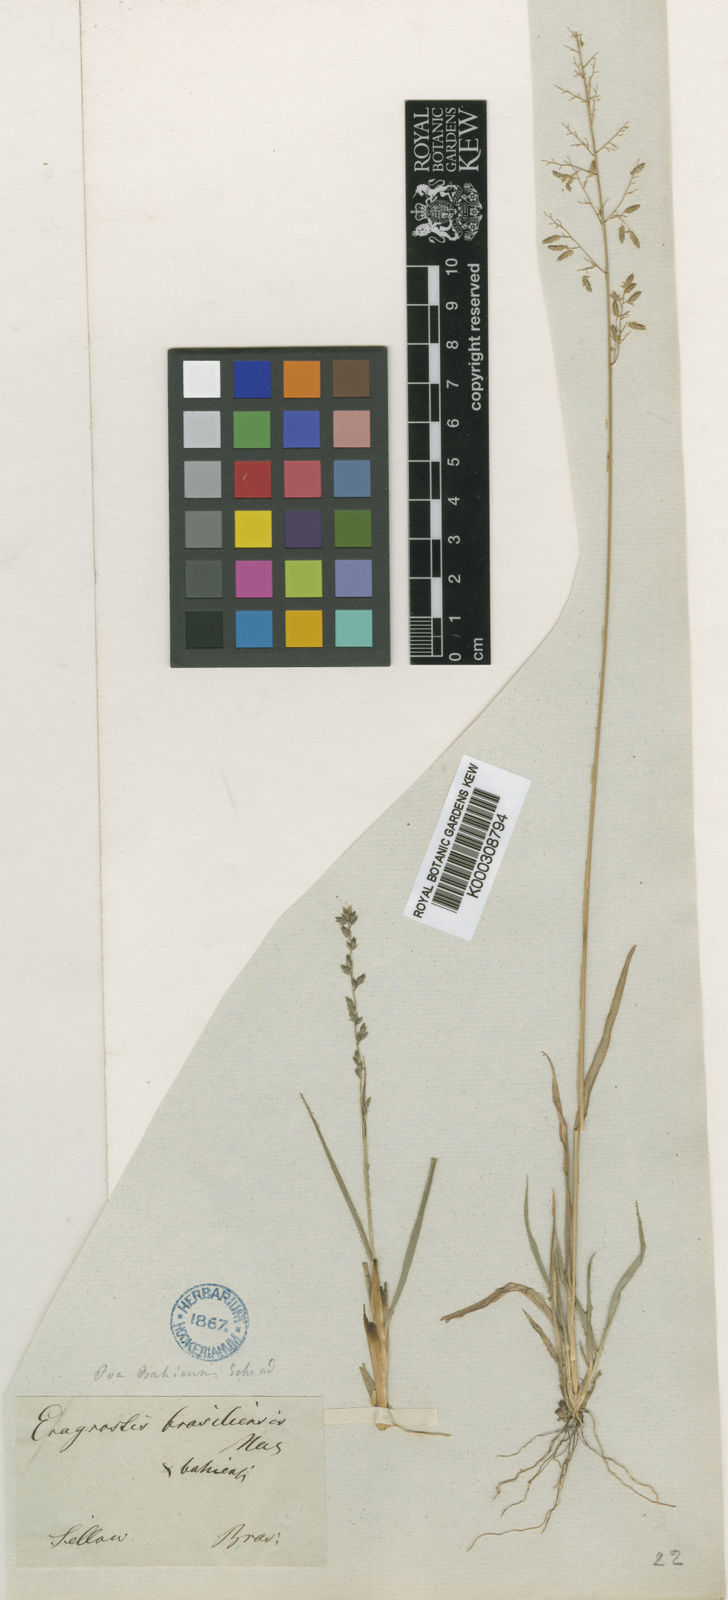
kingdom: Plantae
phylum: Tracheophyta
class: Liliopsida
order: Poales
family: Poaceae
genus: Eragrostis
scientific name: Eragrostis neesii
